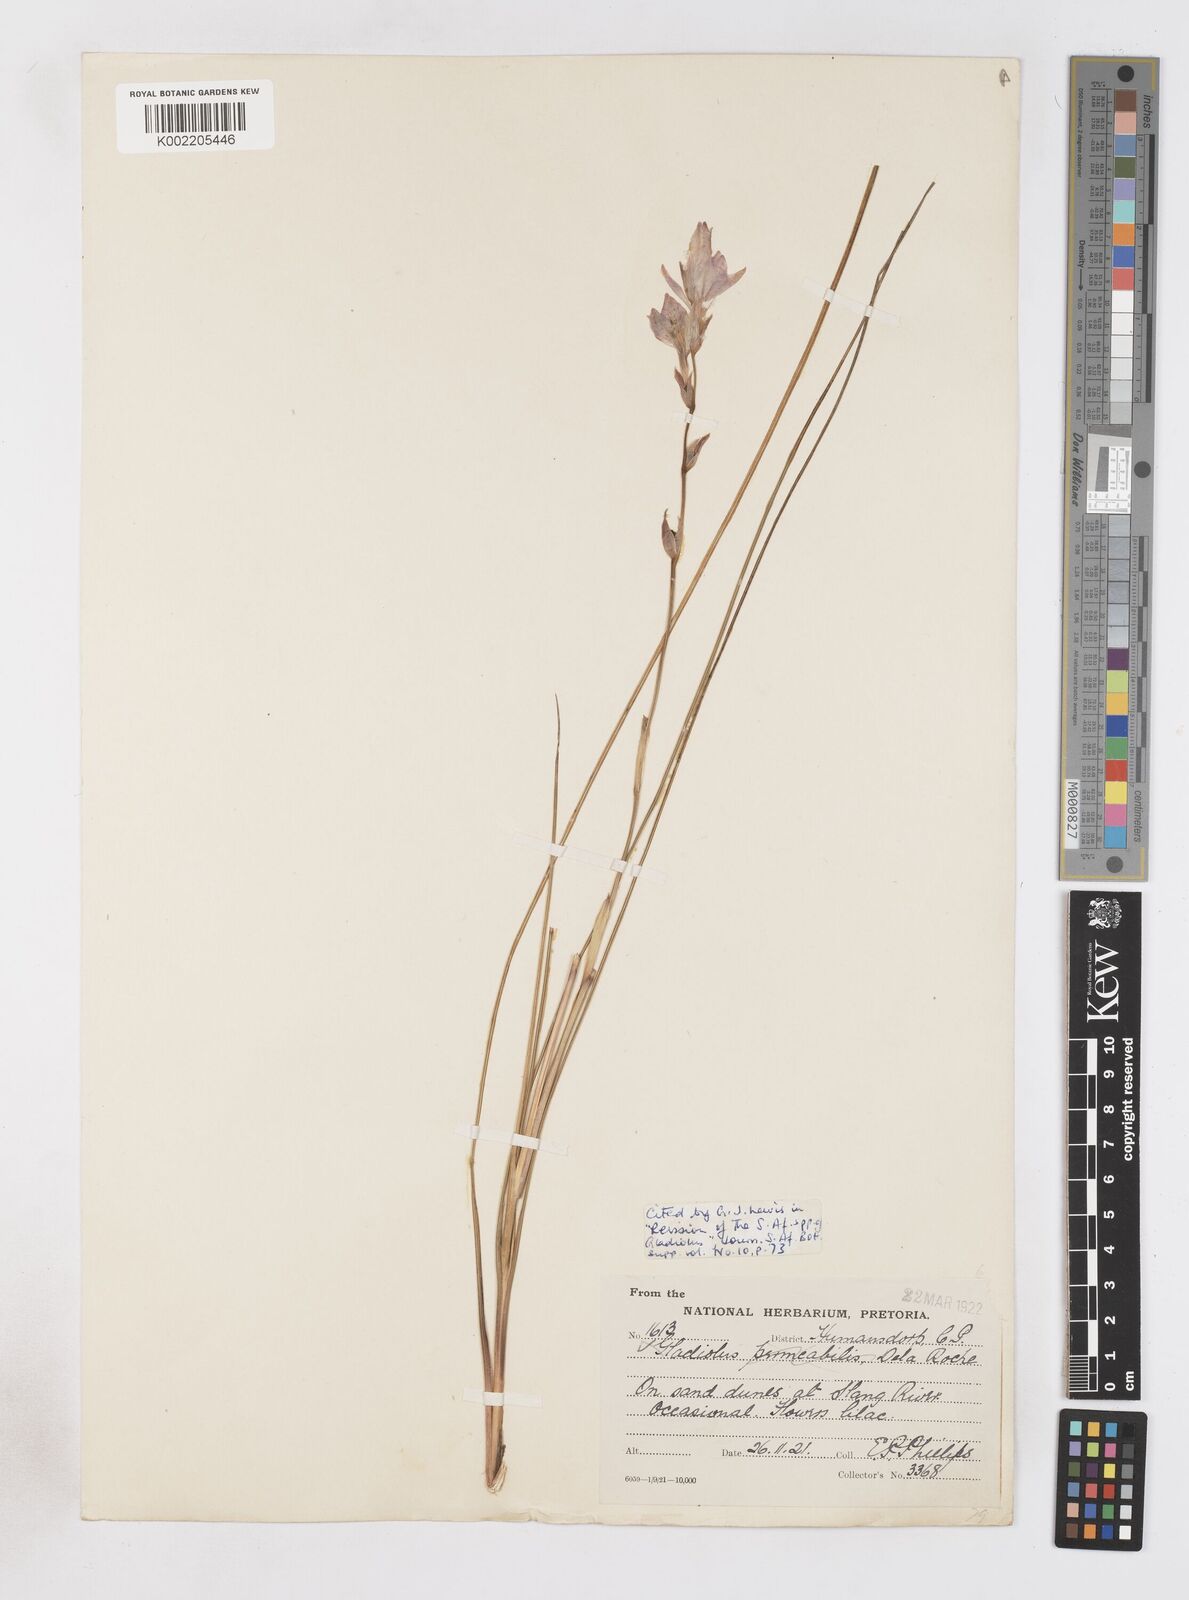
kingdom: Plantae
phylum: Tracheophyta
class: Liliopsida
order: Asparagales
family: Iridaceae
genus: Gladiolus
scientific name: Gladiolus stellatus
